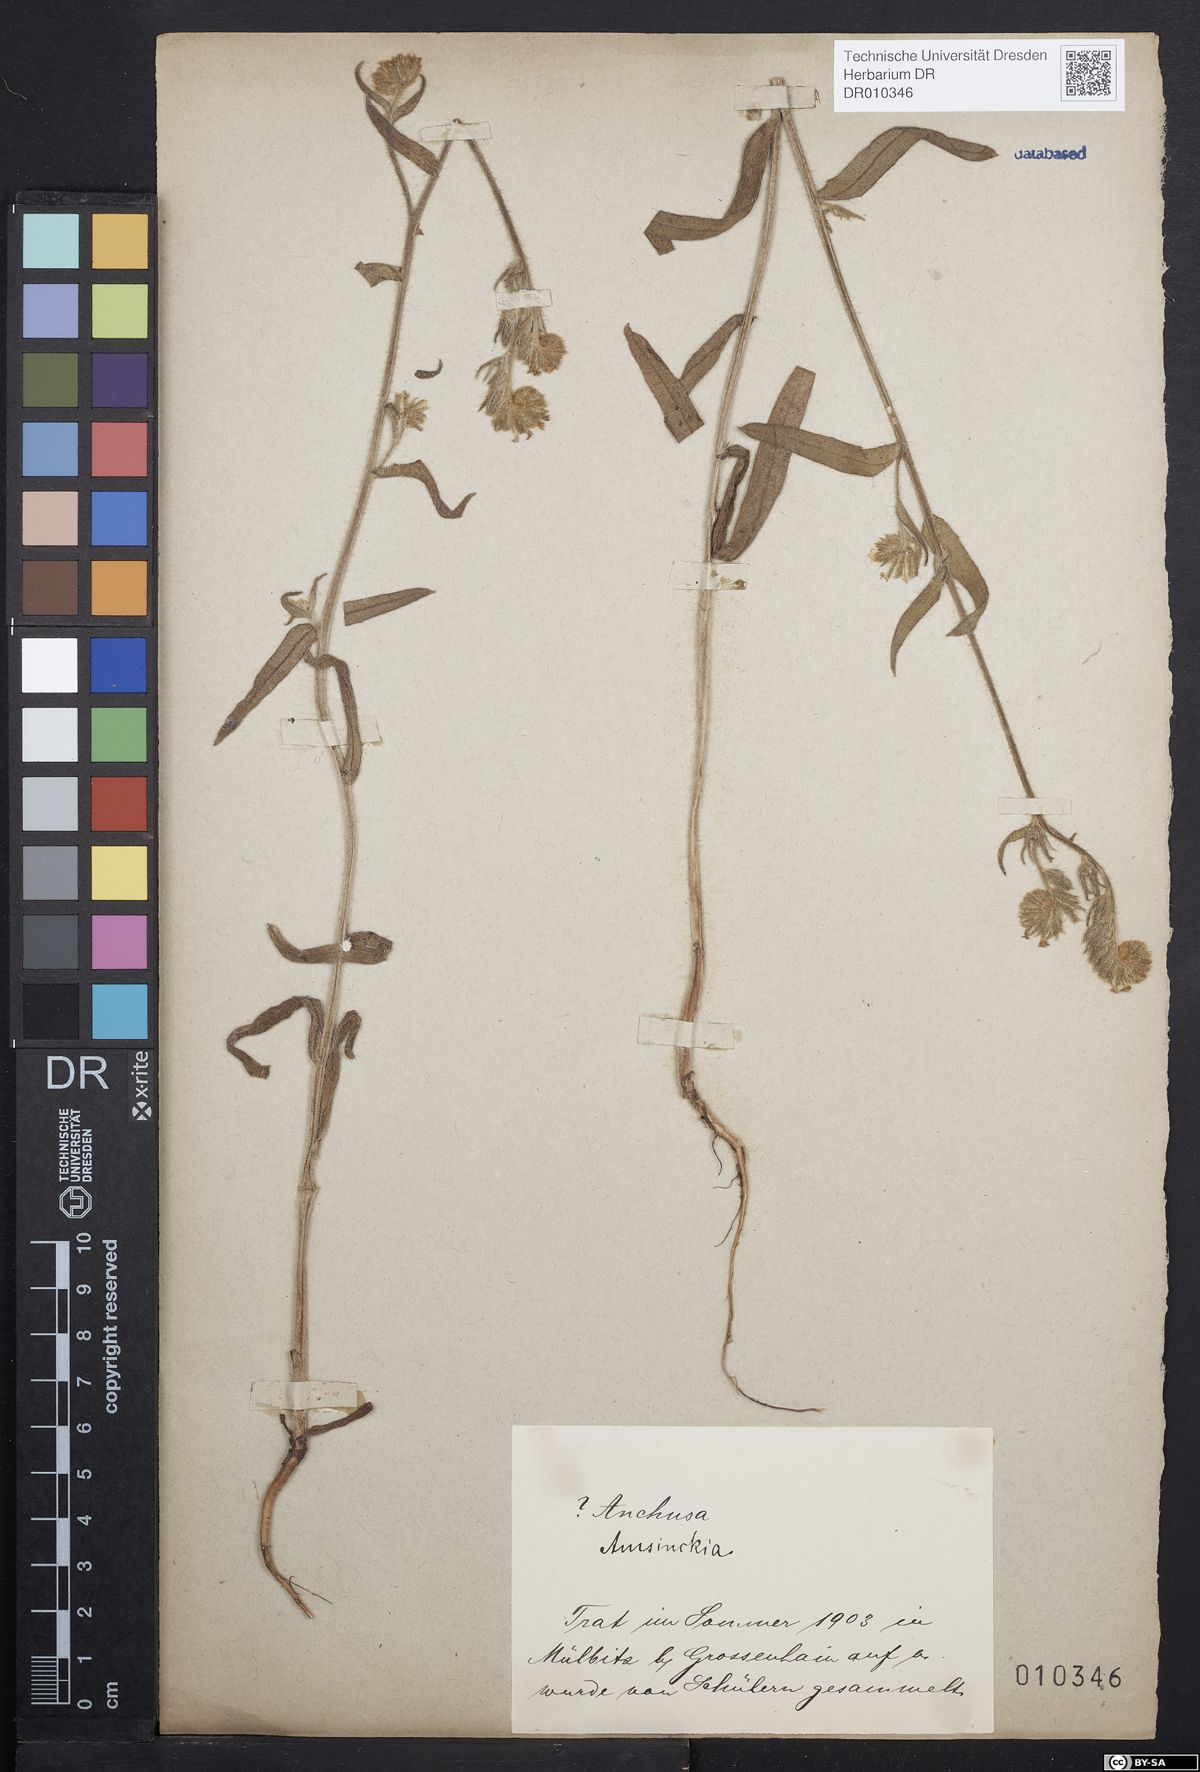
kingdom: Plantae
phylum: Tracheophyta
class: Magnoliopsida
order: Boraginales
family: Boraginaceae
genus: Amsinckia
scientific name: Amsinckia
